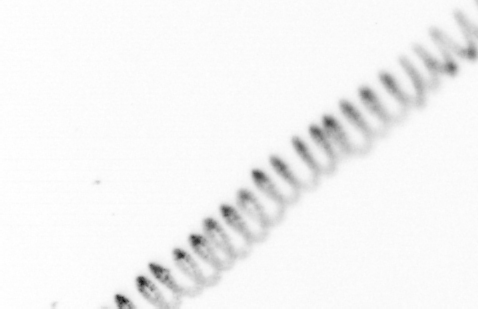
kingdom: Chromista
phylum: Ochrophyta
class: Bacillariophyceae
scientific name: Bacillariophyceae
